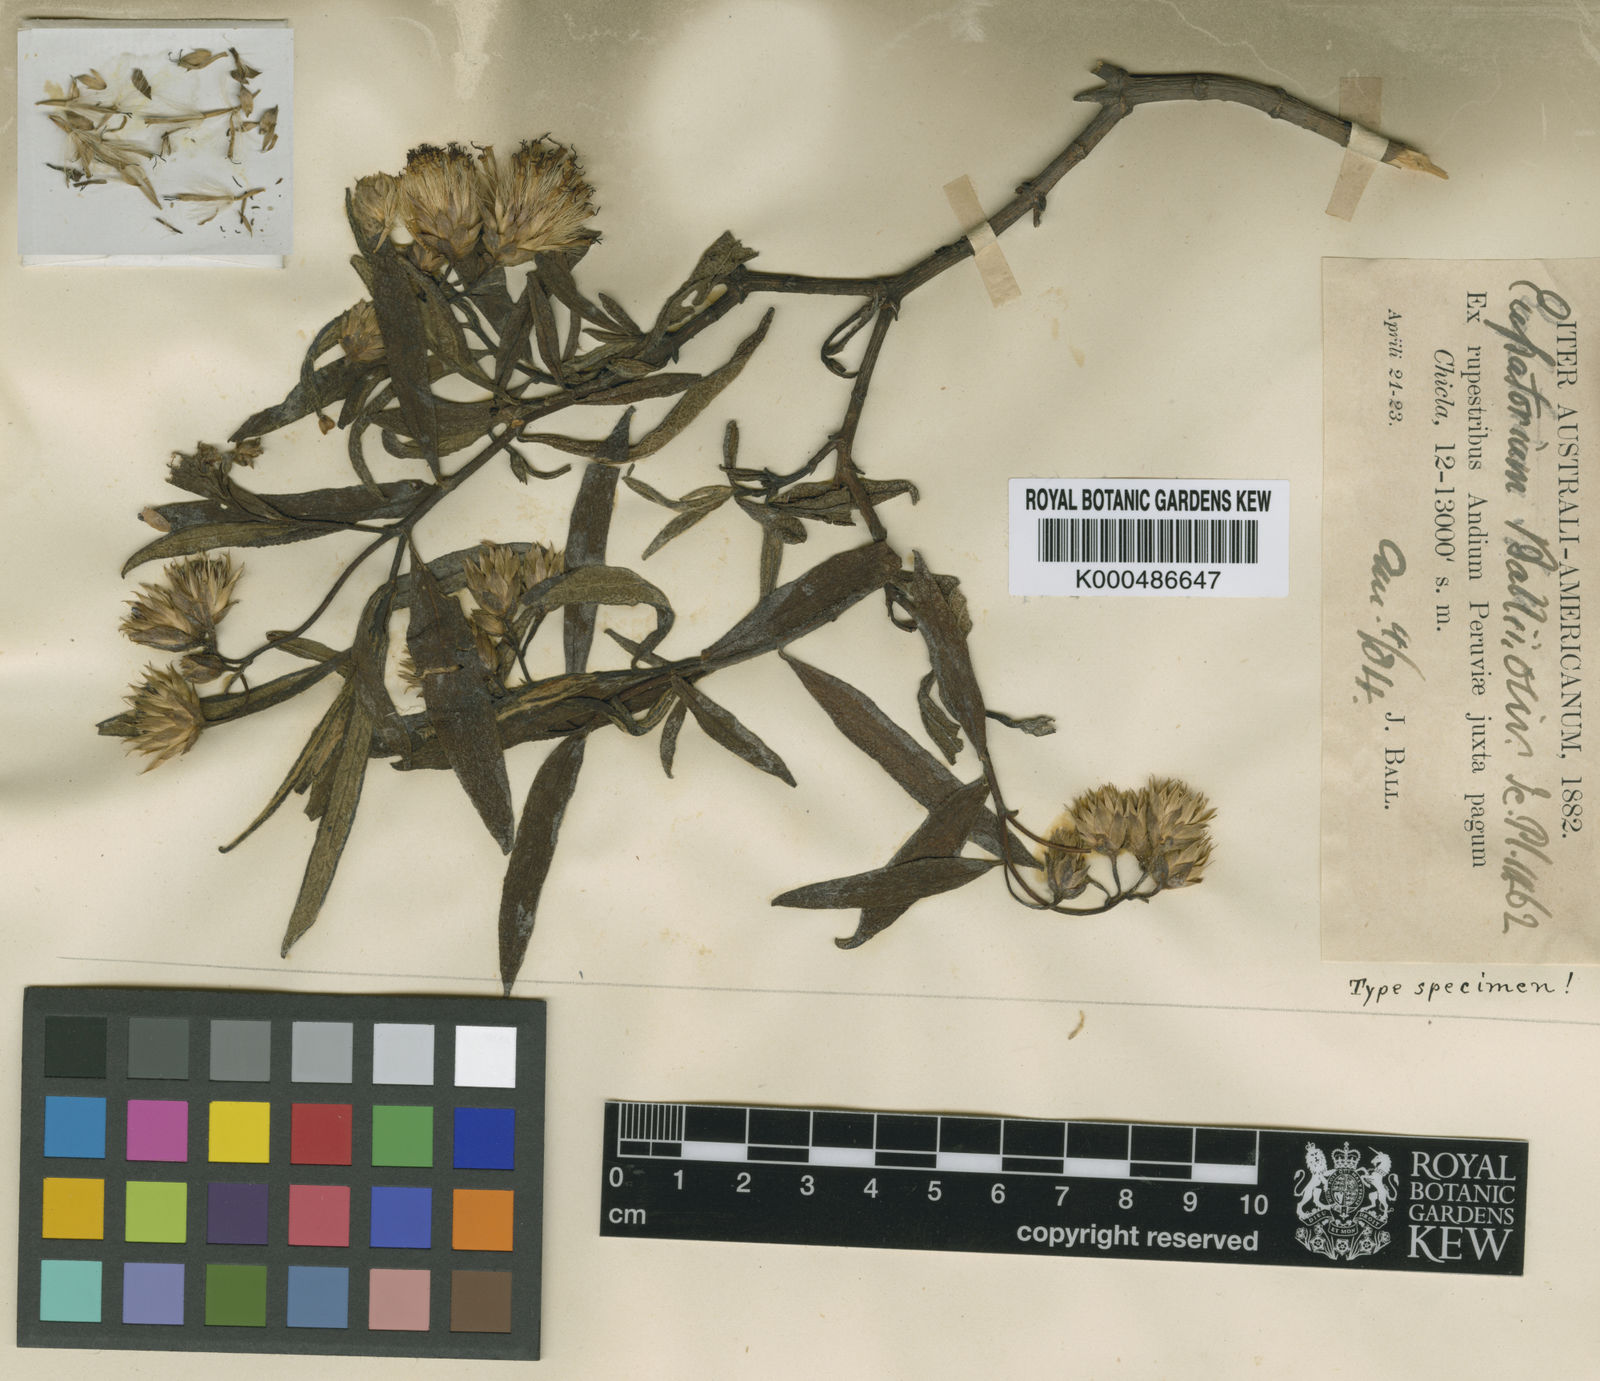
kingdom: Plantae
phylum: Tracheophyta
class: Magnoliopsida
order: Asterales
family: Asteraceae
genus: Aristeguietia
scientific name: Aristeguietia ballii
